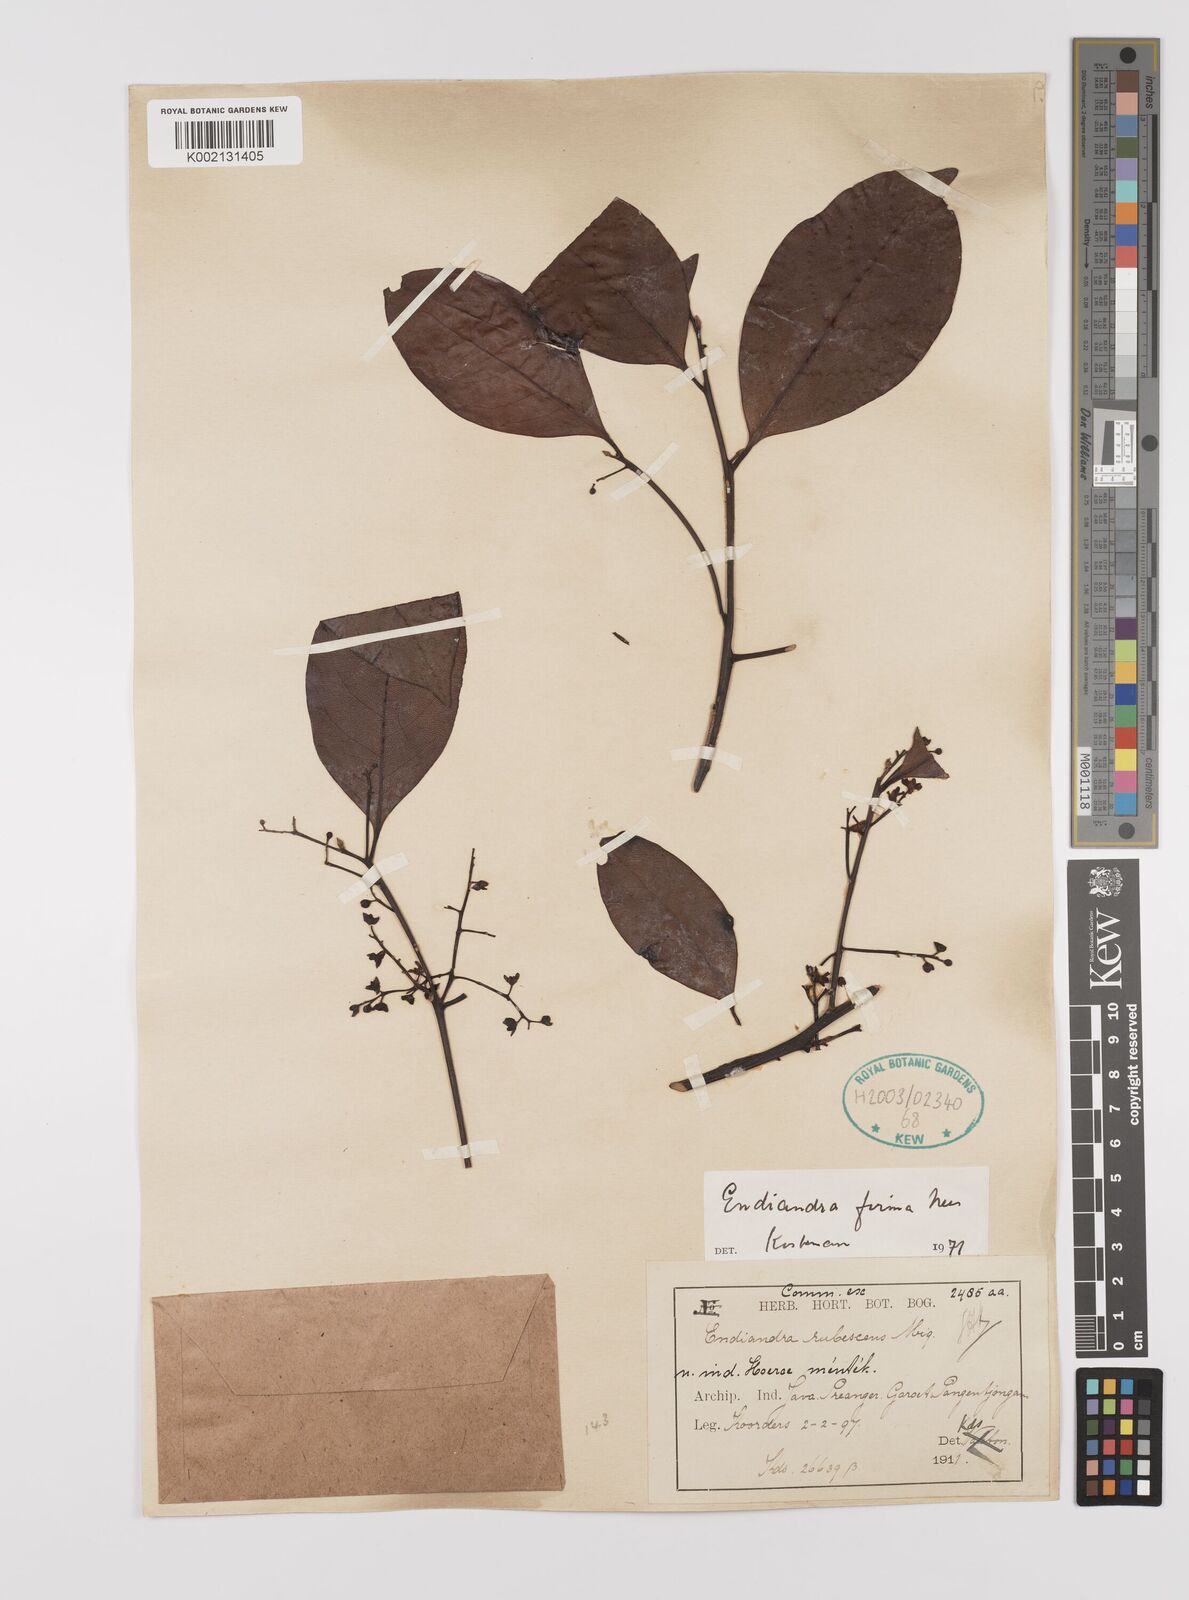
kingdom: Plantae
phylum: Tracheophyta
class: Magnoliopsida
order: Laurales
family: Lauraceae
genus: Endiandra
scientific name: Endiandra firma
